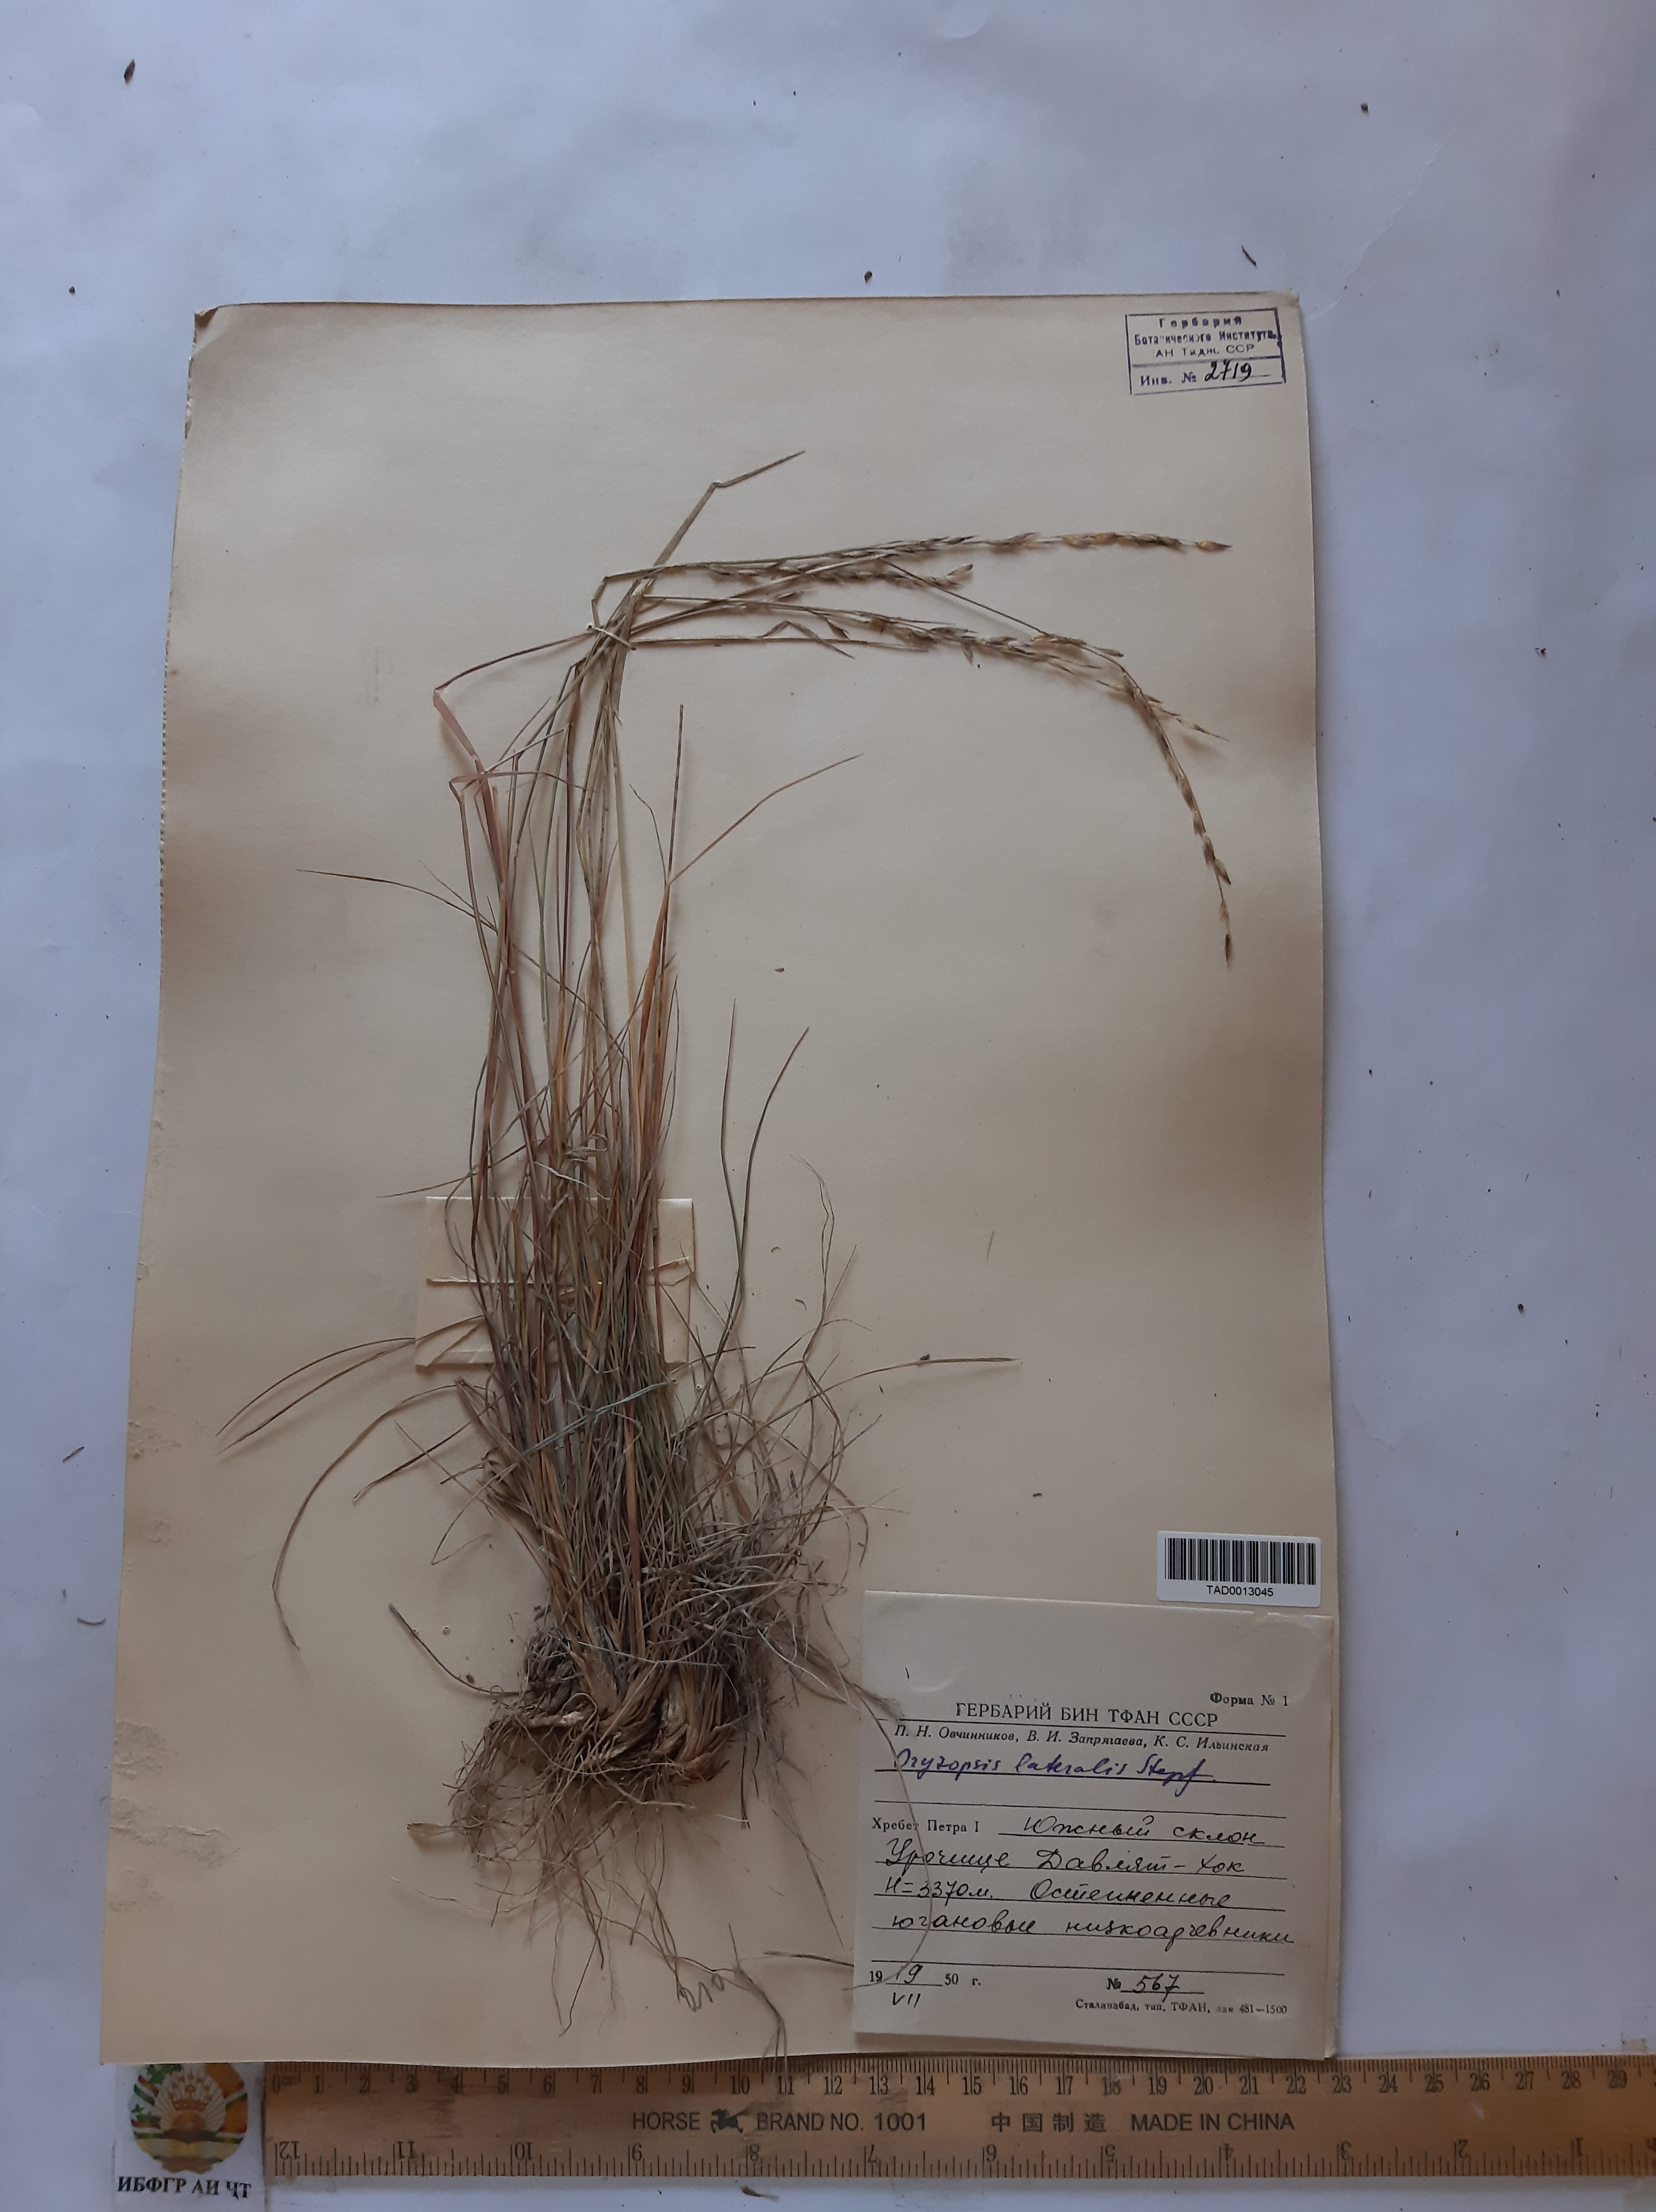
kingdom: Plantae
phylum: Tracheophyta
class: Liliopsida
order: Poales
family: Poaceae
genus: Piptatherum
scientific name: Piptatherum laterale
